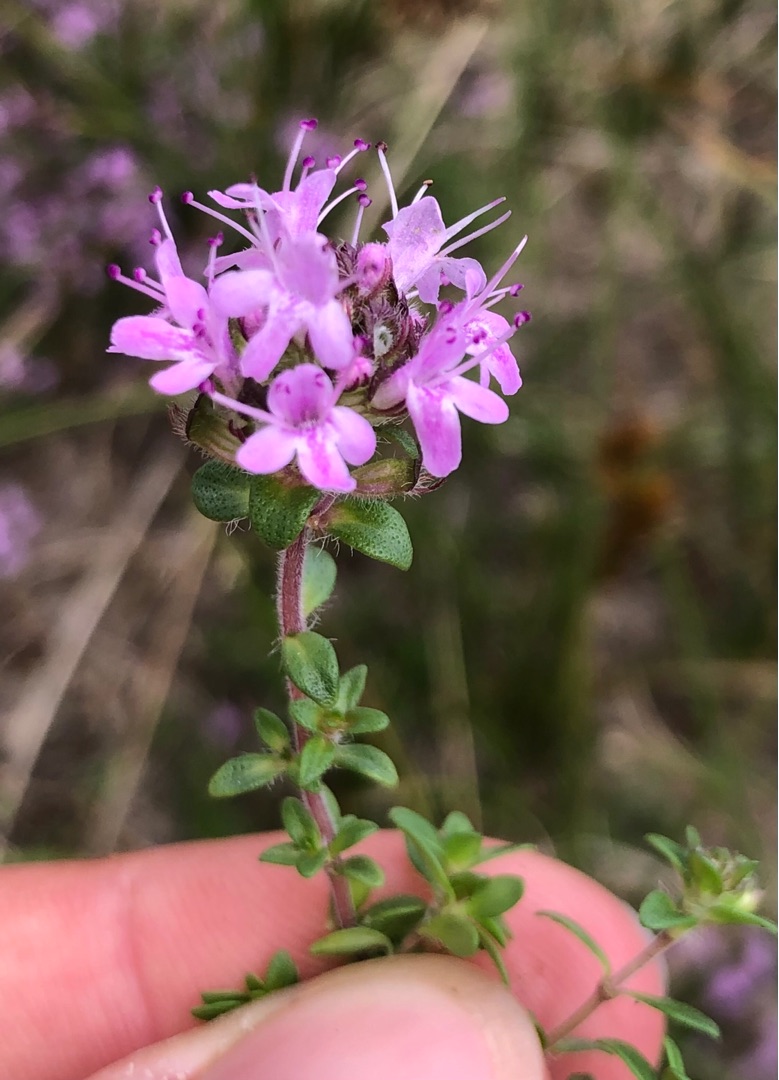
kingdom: Plantae
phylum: Tracheophyta
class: Magnoliopsida
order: Lamiales
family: Lamiaceae
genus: Thymus
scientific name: Thymus serpyllum
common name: Smalbladet timian
